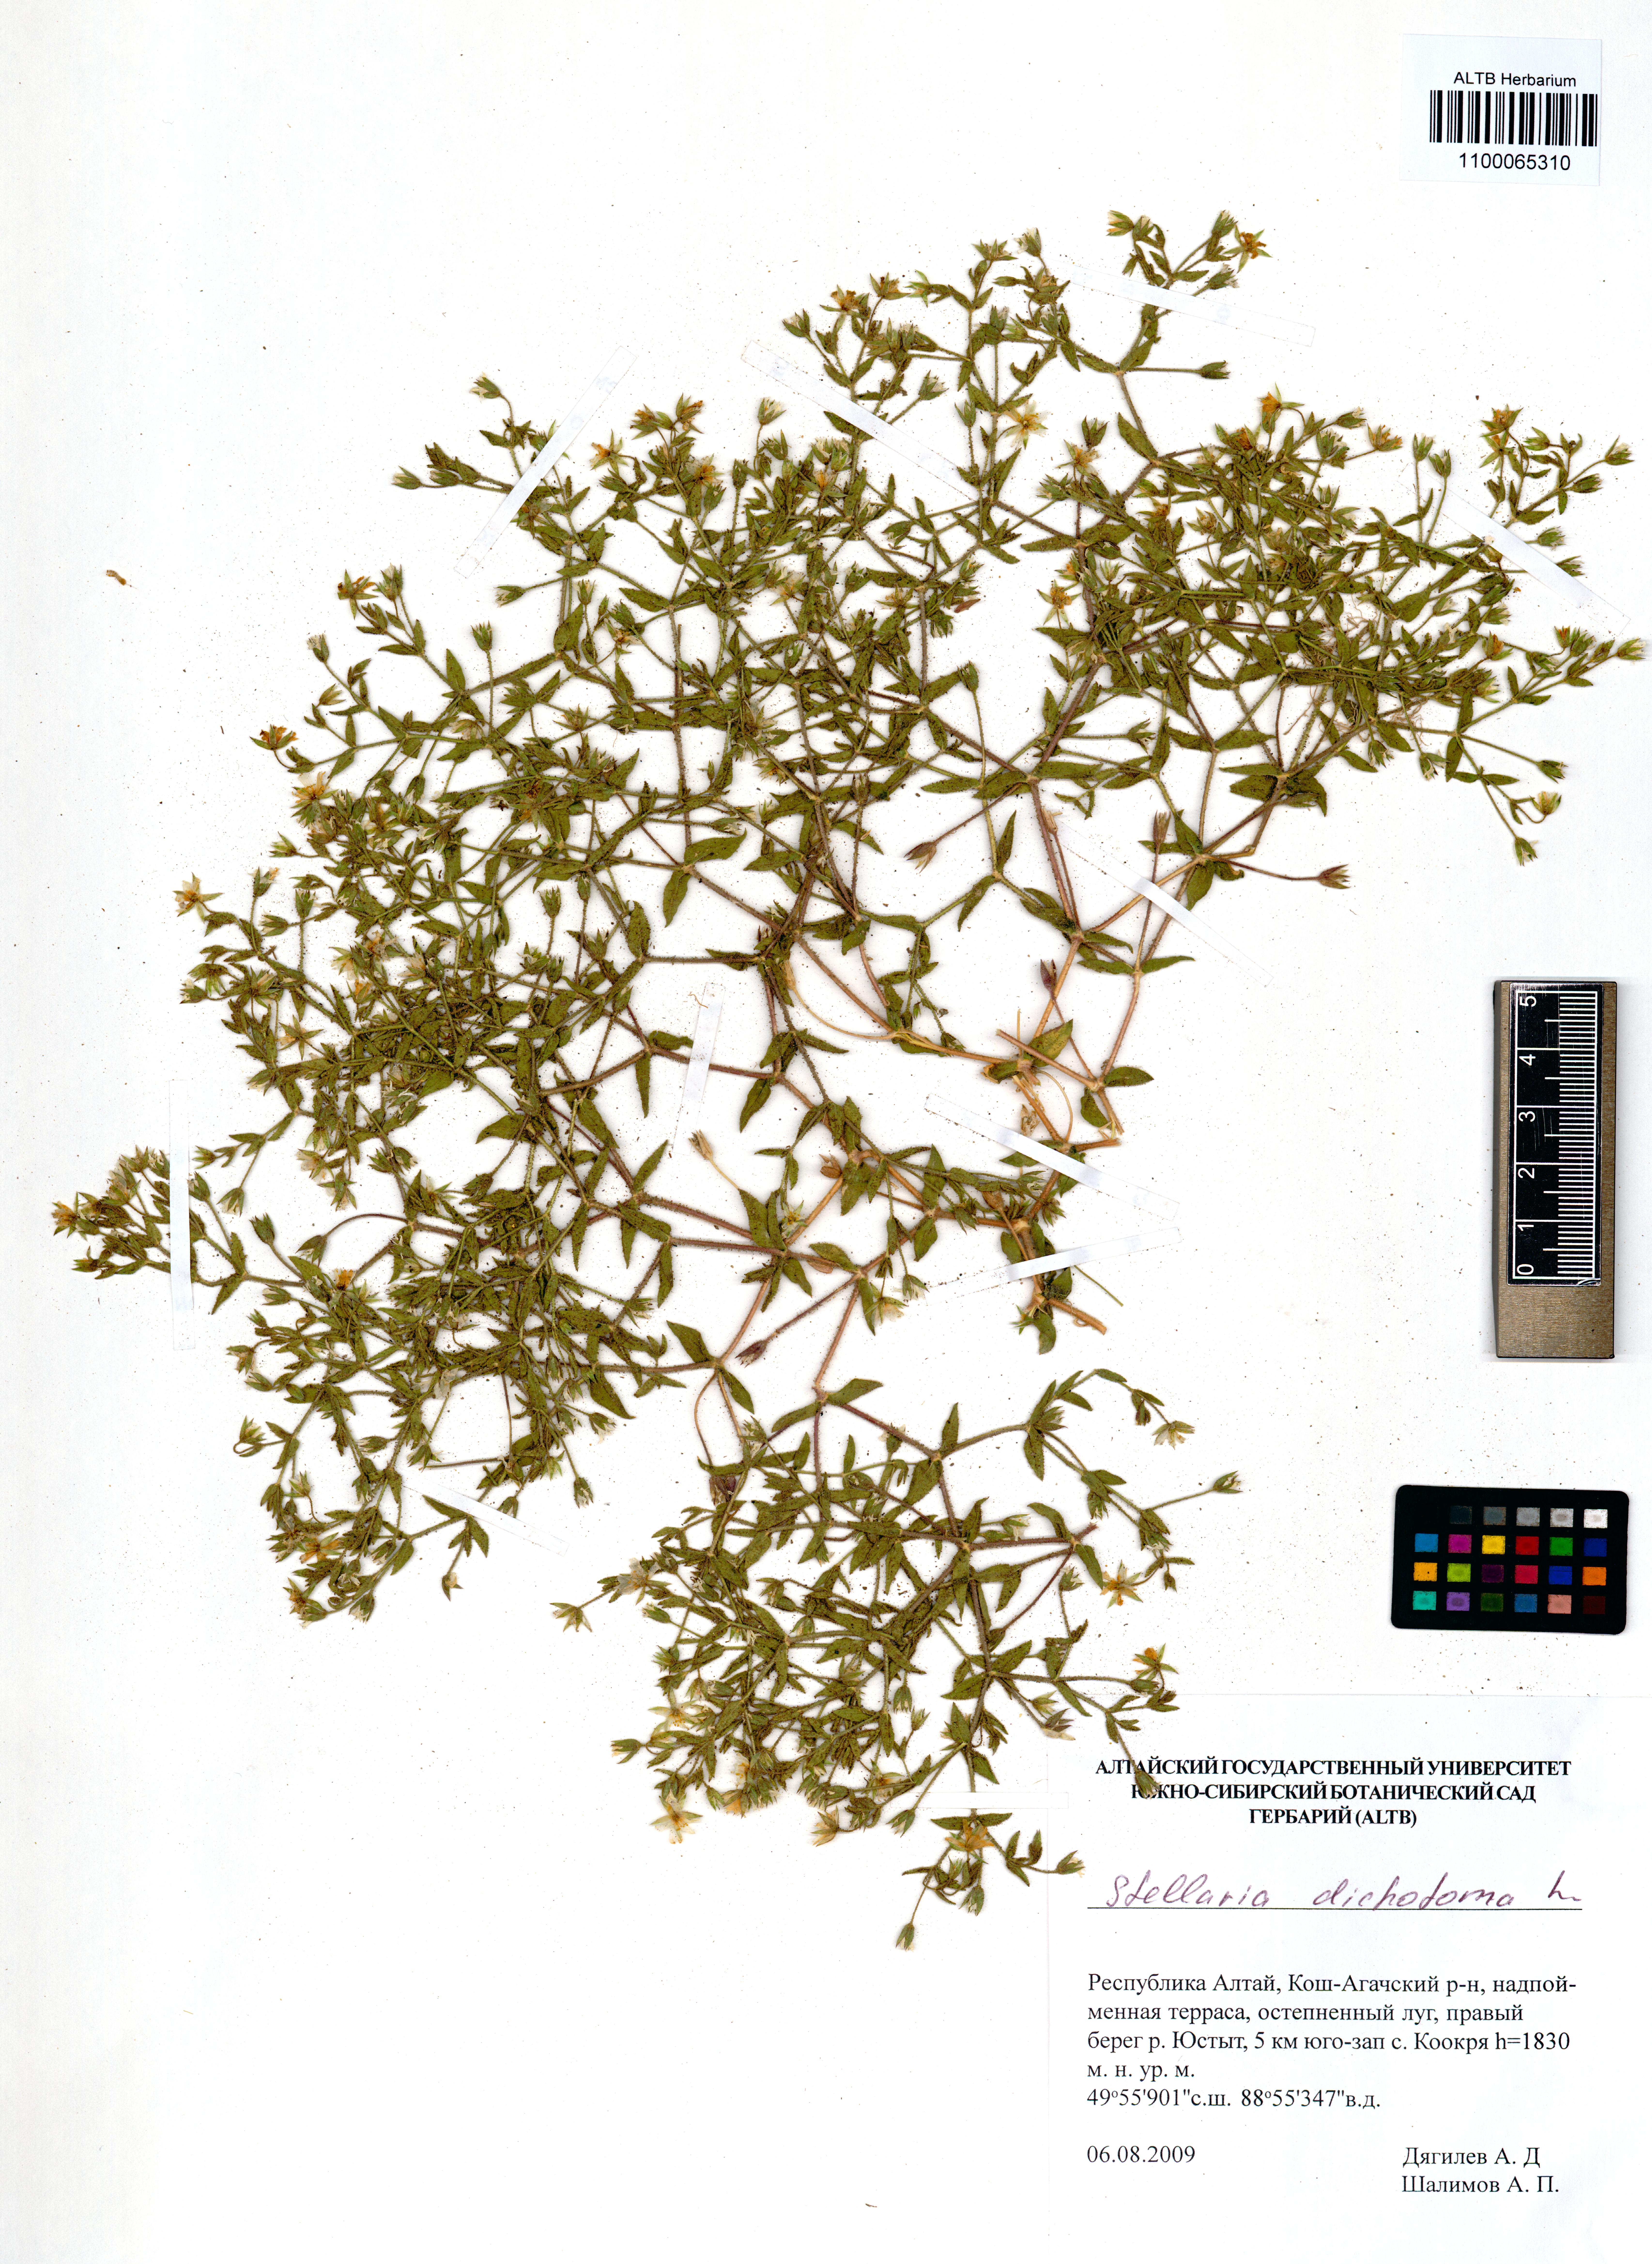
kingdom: Plantae
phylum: Tracheophyta
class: Magnoliopsida
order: Caryophyllales
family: Caryophyllaceae
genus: Mesostemma
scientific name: Mesostemma dichotomum
